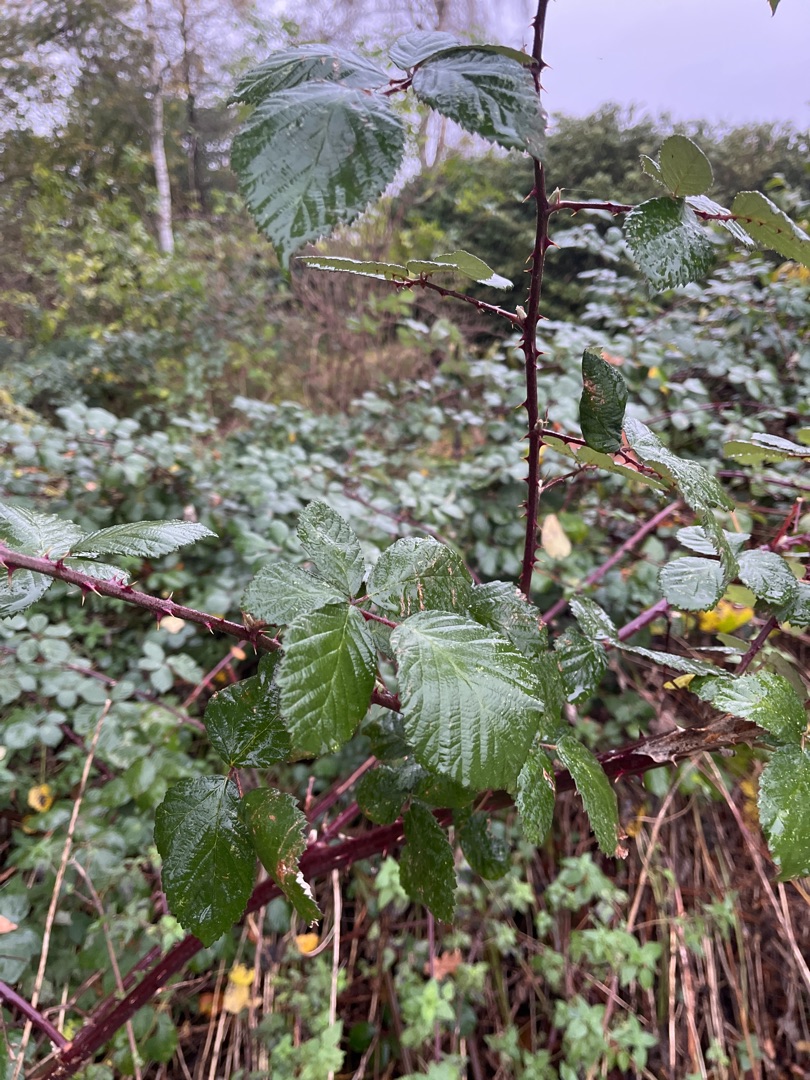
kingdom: Plantae
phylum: Tracheophyta
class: Magnoliopsida
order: Rosales
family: Rosaceae
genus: Rubus
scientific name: Rubus armeniacus
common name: Armensk brombær
